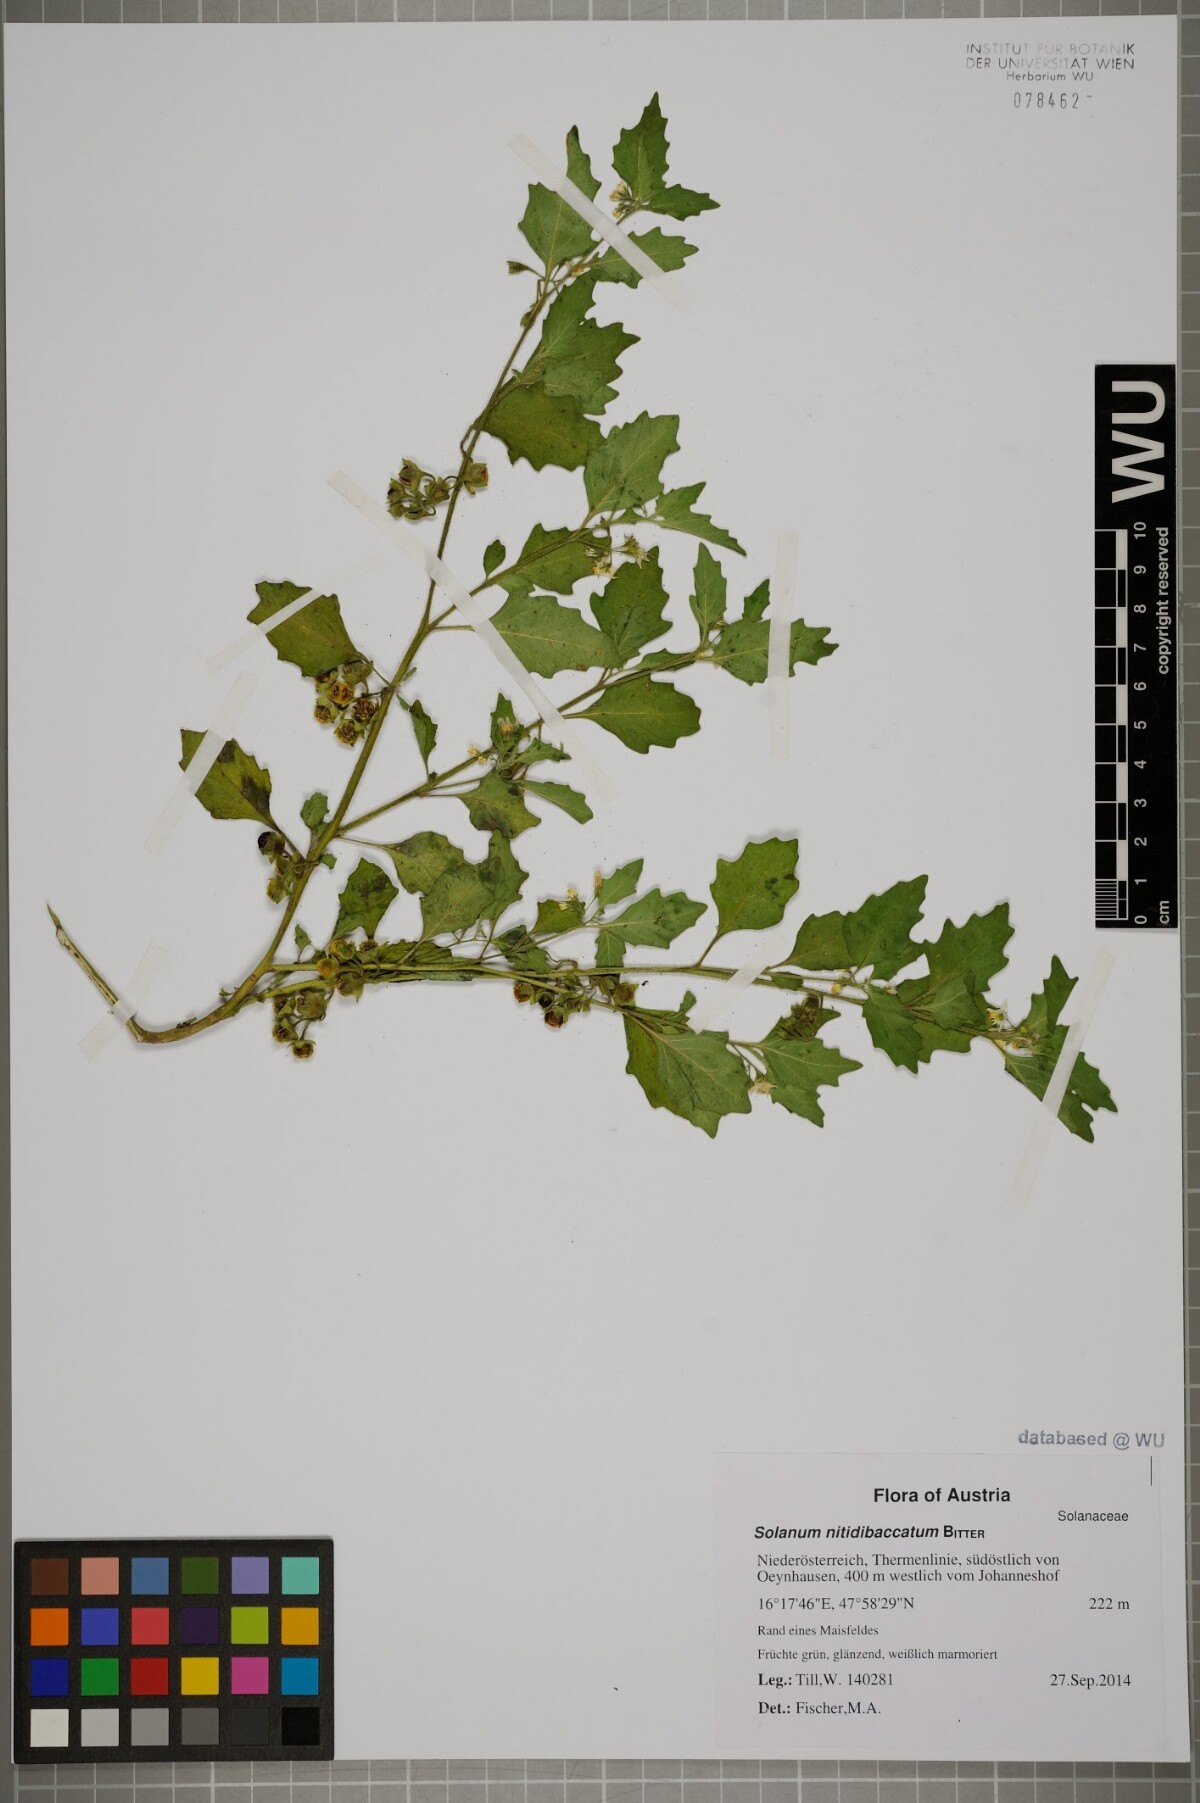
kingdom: Plantae
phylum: Tracheophyta
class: Magnoliopsida
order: Solanales
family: Solanaceae
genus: Solanum
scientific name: Solanum nitidibaccatum
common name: Hairy nightshade
